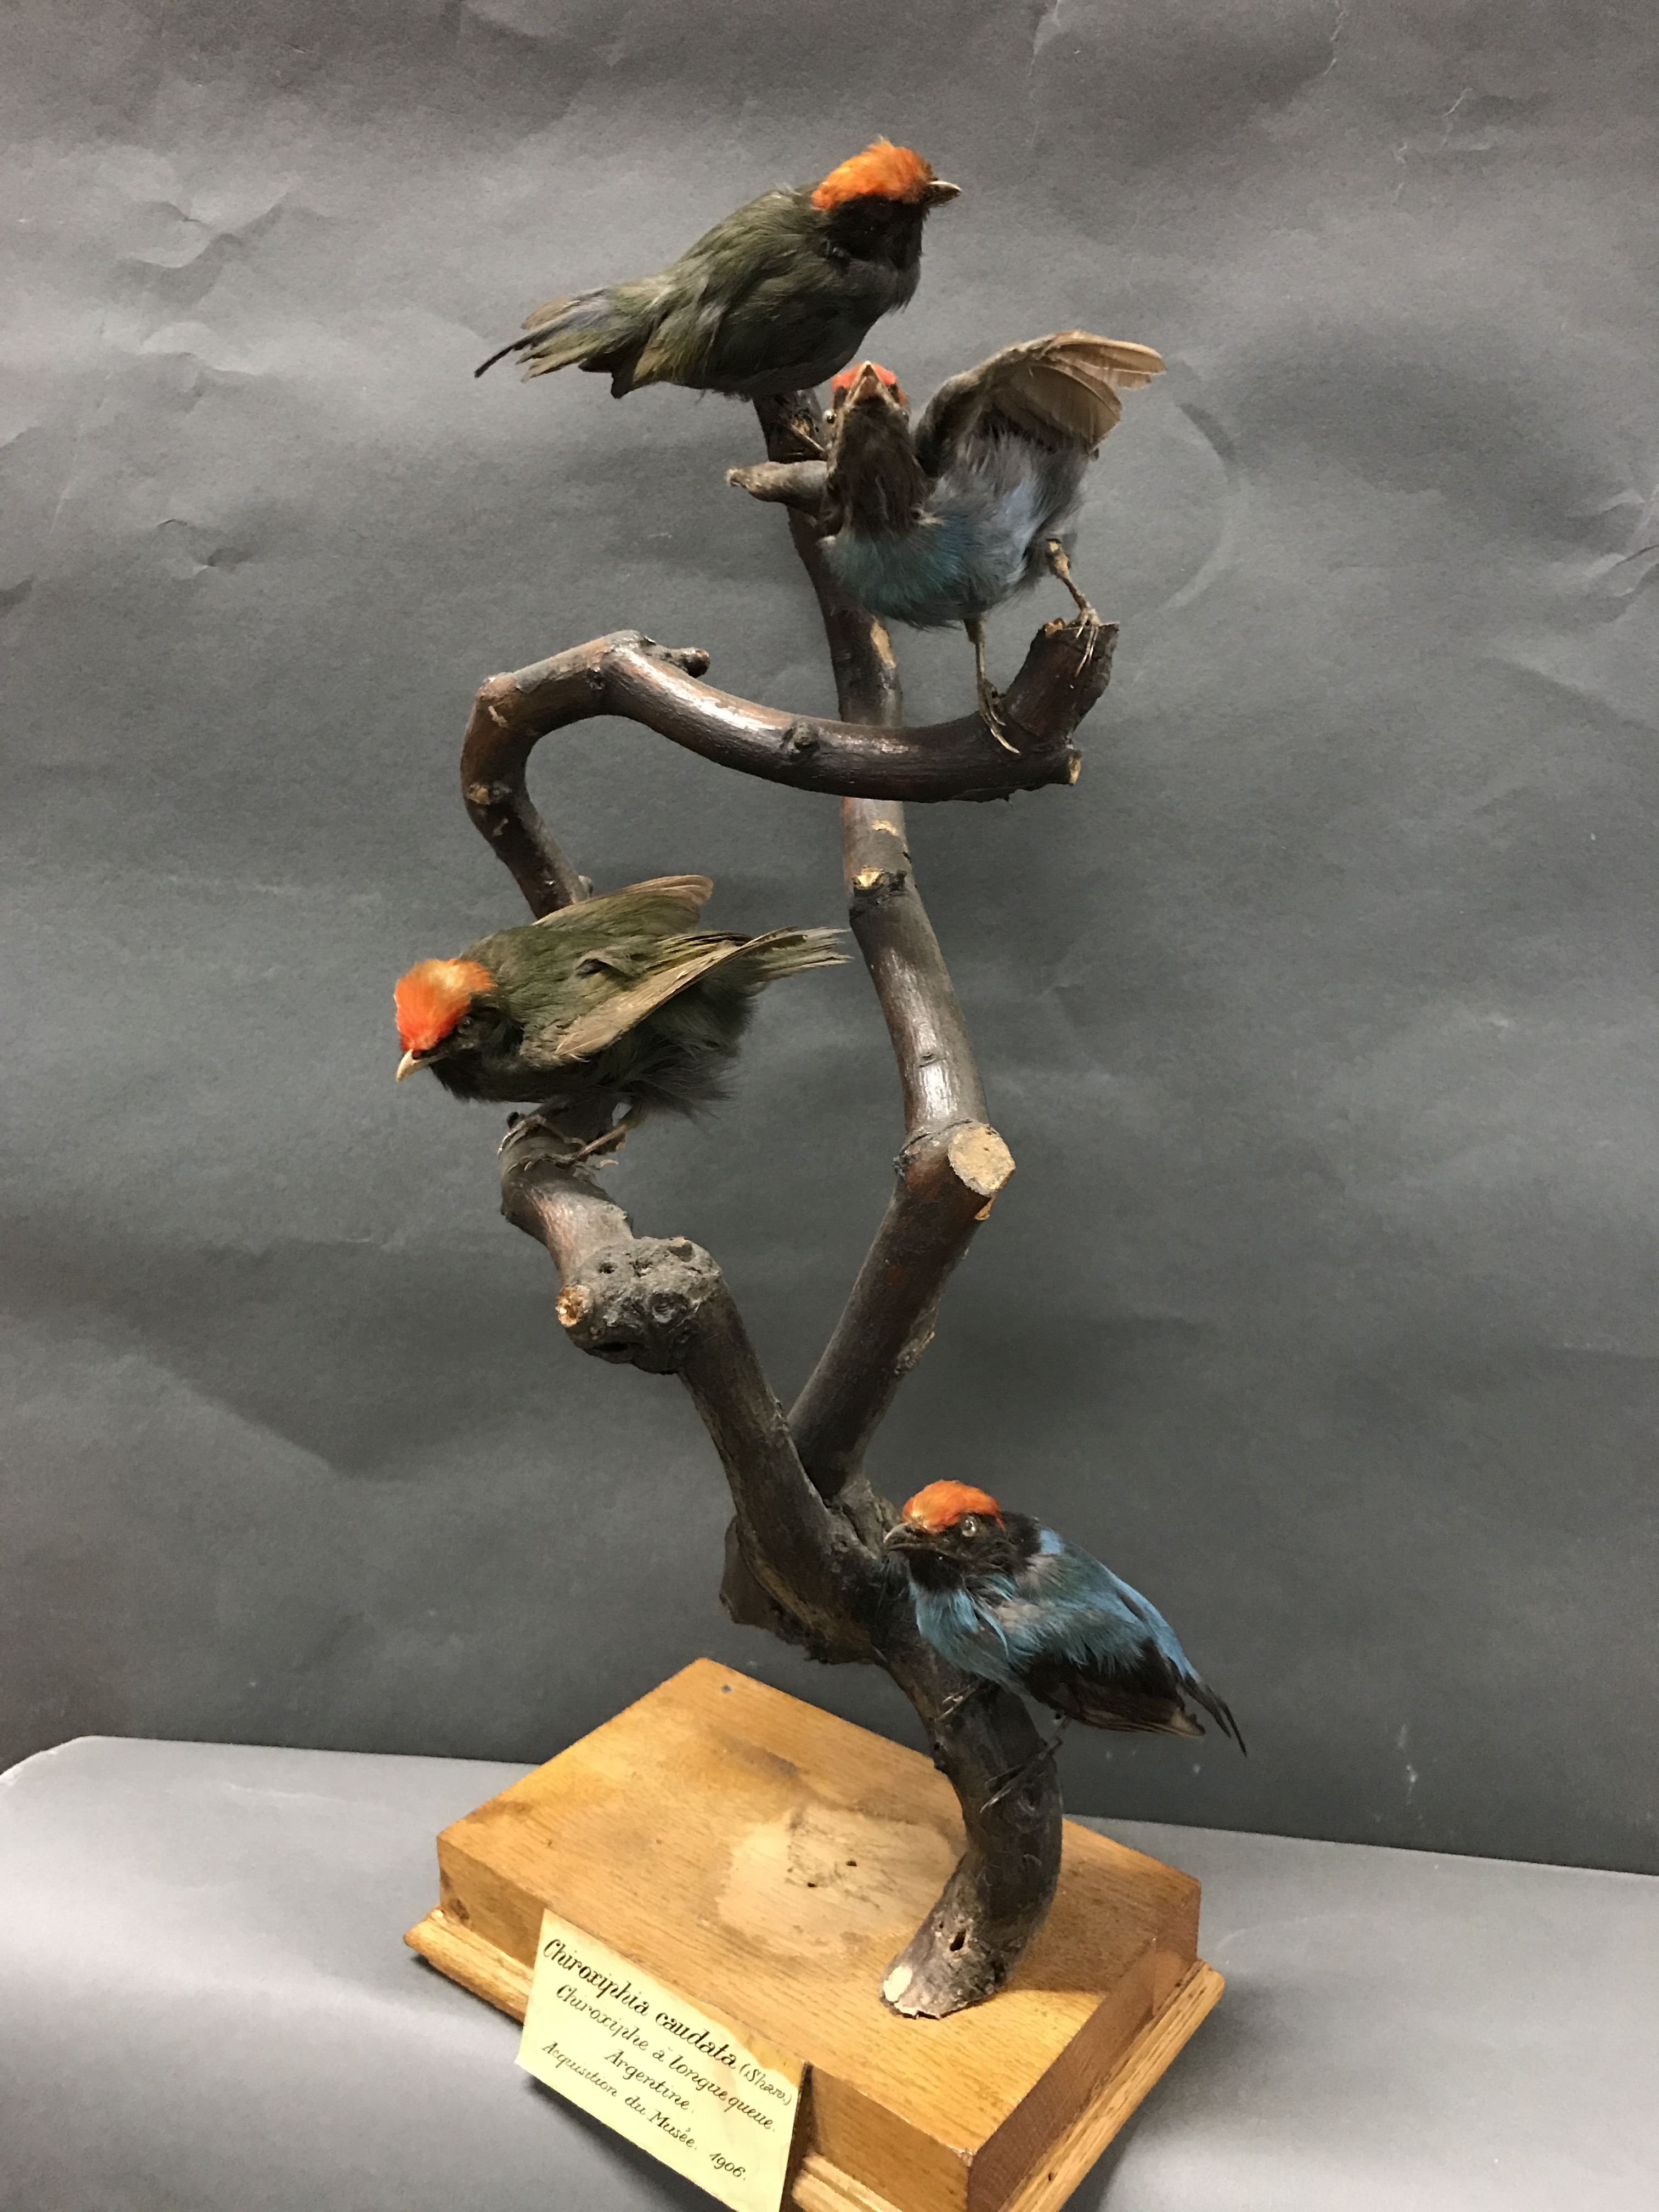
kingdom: Animalia
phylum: Chordata
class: Aves
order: Passeriformes
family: Pipridae
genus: Ilicura
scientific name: Ilicura militaris
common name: Pin-tailed manakin
